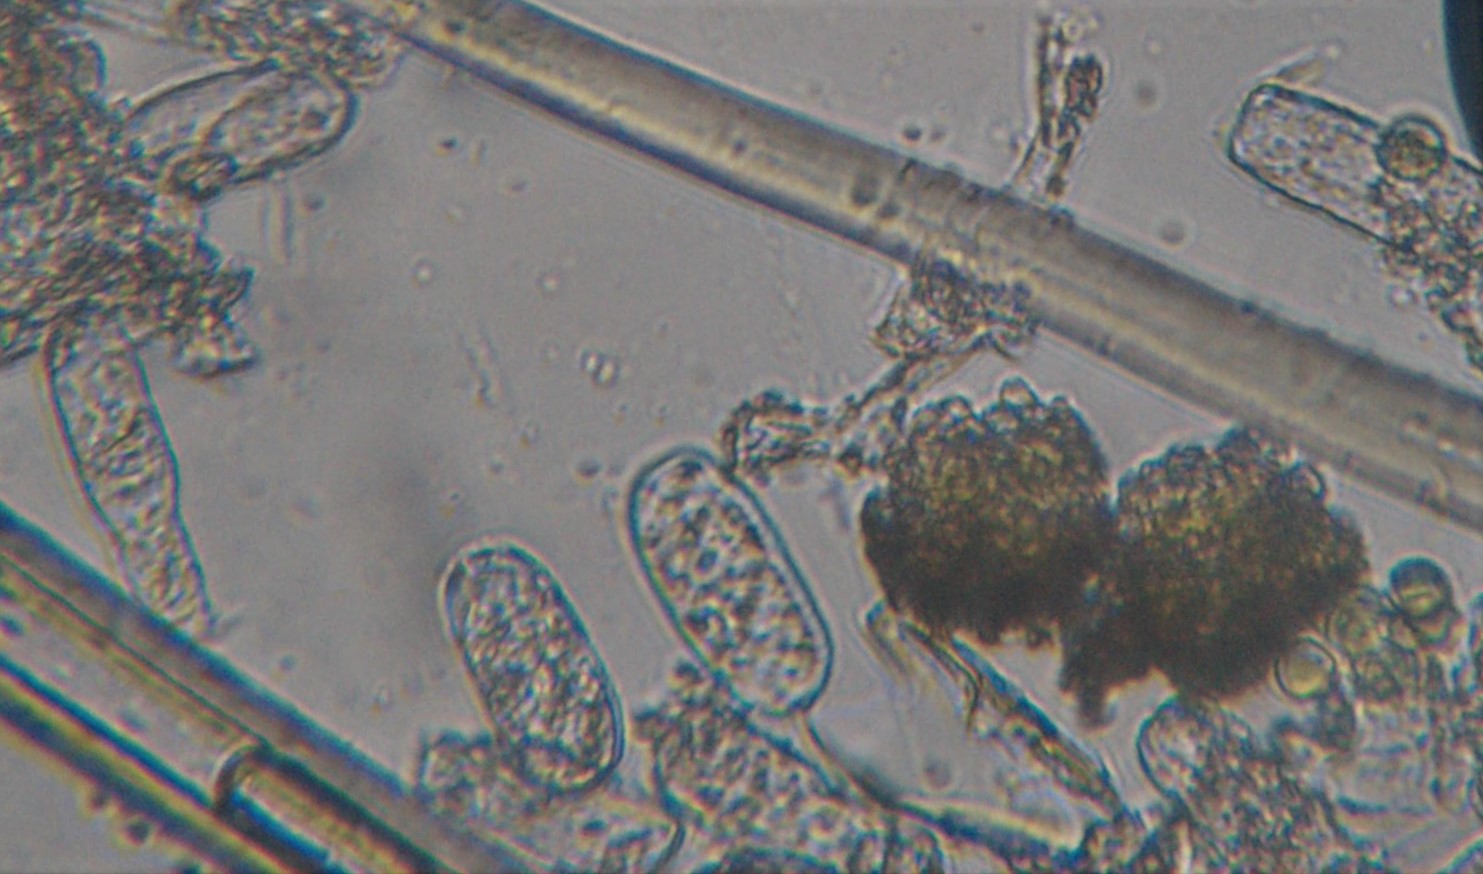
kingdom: Fungi
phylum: Ascomycota
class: Leotiomycetes
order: Helotiales
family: Erysiphaceae
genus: Erysiphe
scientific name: Erysiphe lonicerae
